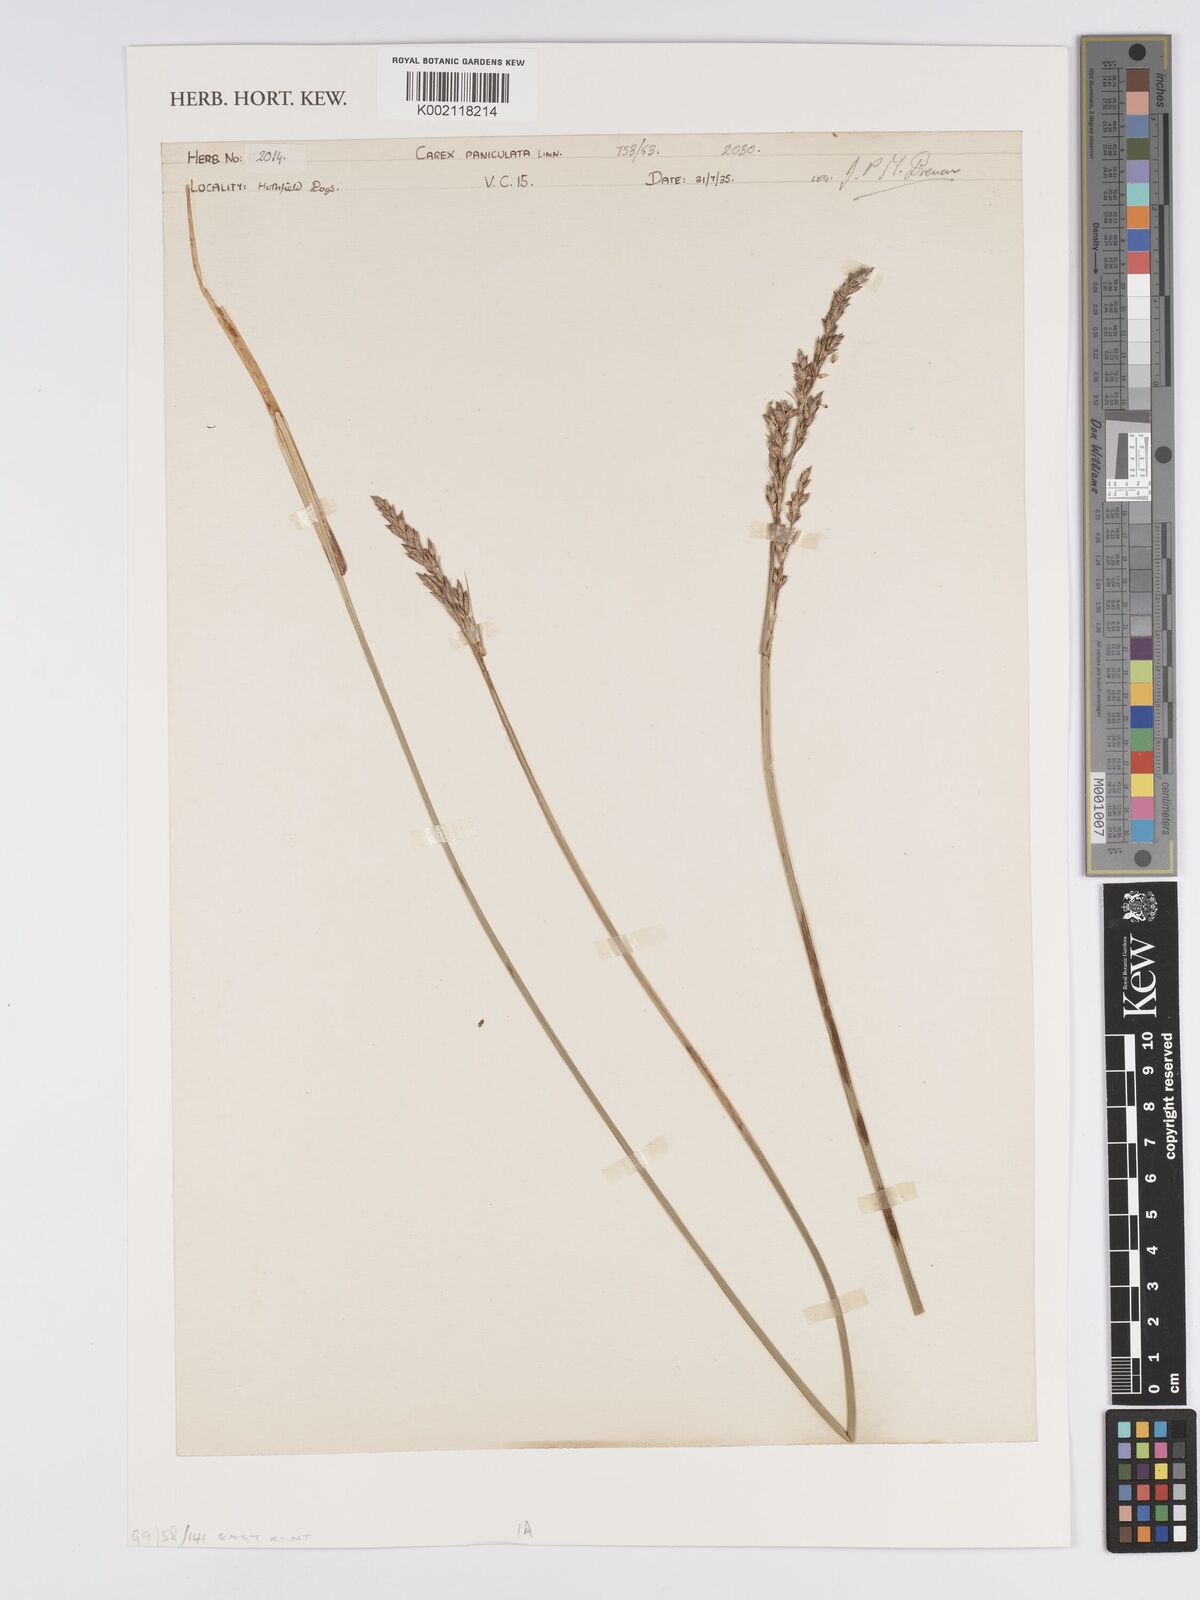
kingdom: Plantae
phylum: Tracheophyta
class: Liliopsida
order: Poales
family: Cyperaceae
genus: Carex
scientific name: Carex paniculata
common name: Greater tussock-sedge
